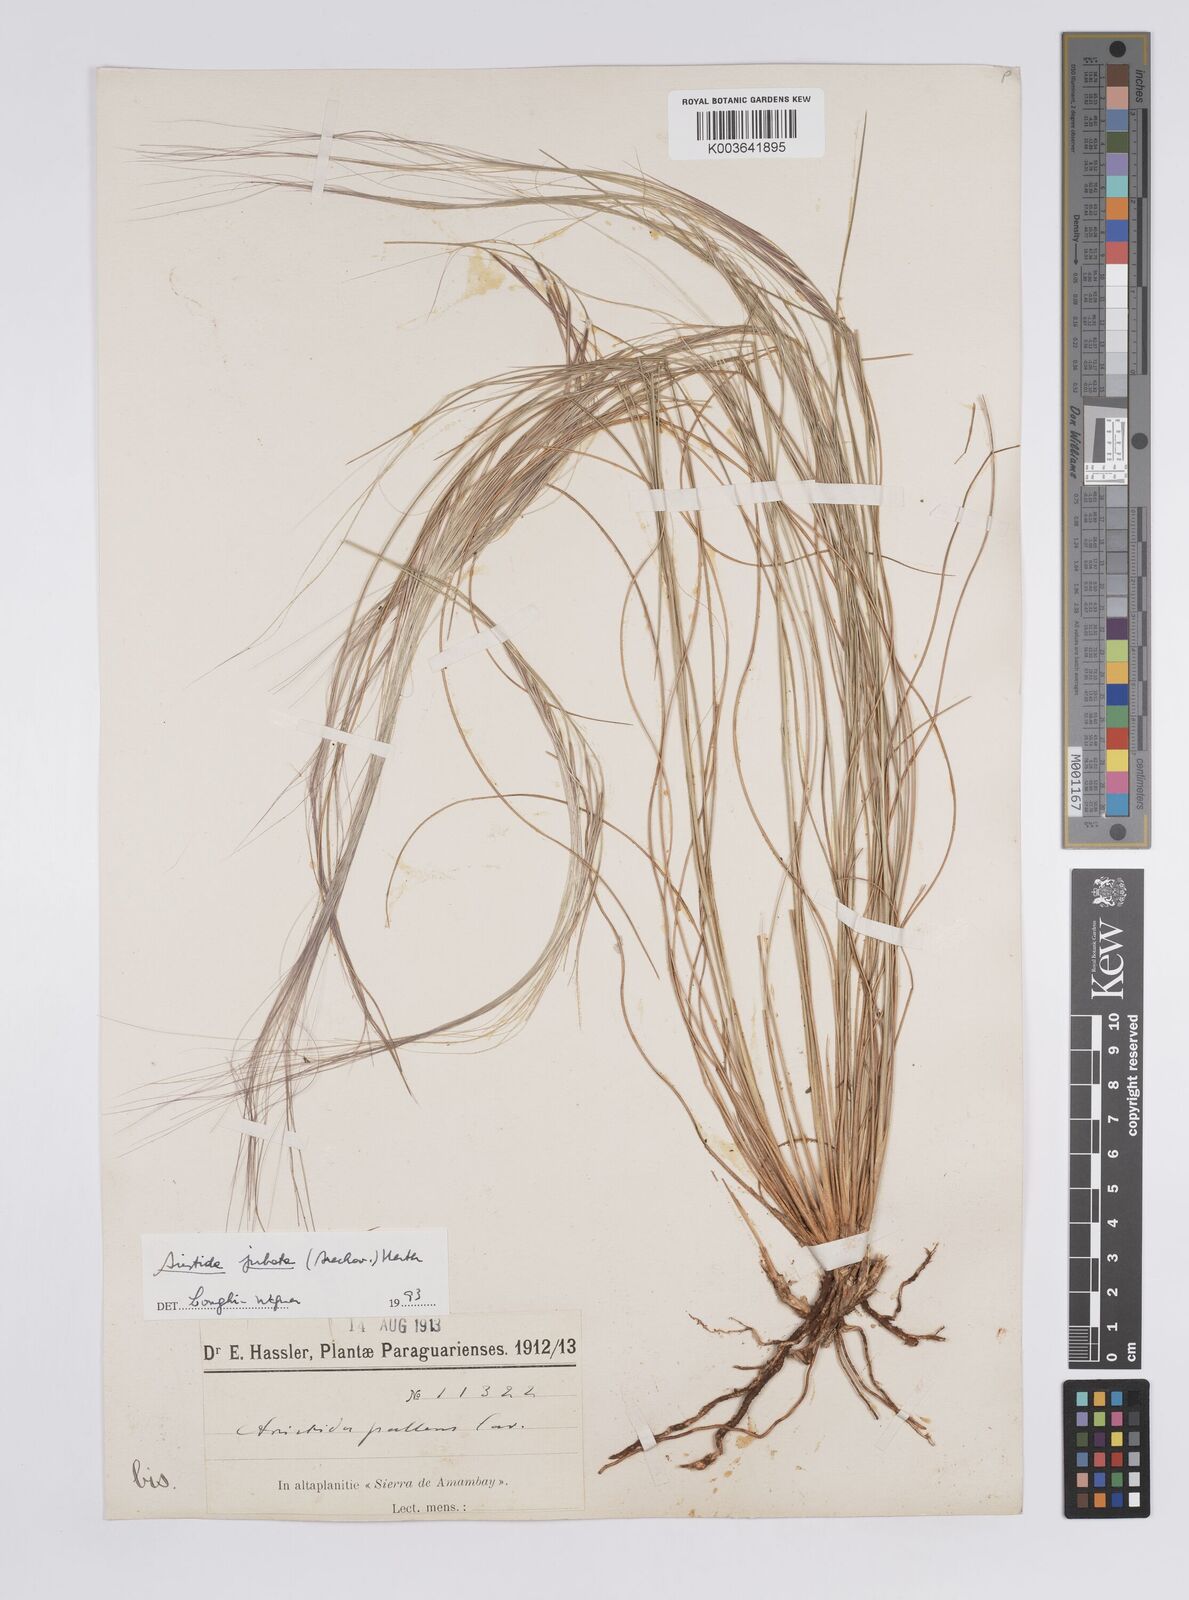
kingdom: Plantae
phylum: Tracheophyta
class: Liliopsida
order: Poales
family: Poaceae
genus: Aristida
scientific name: Aristida jubata
